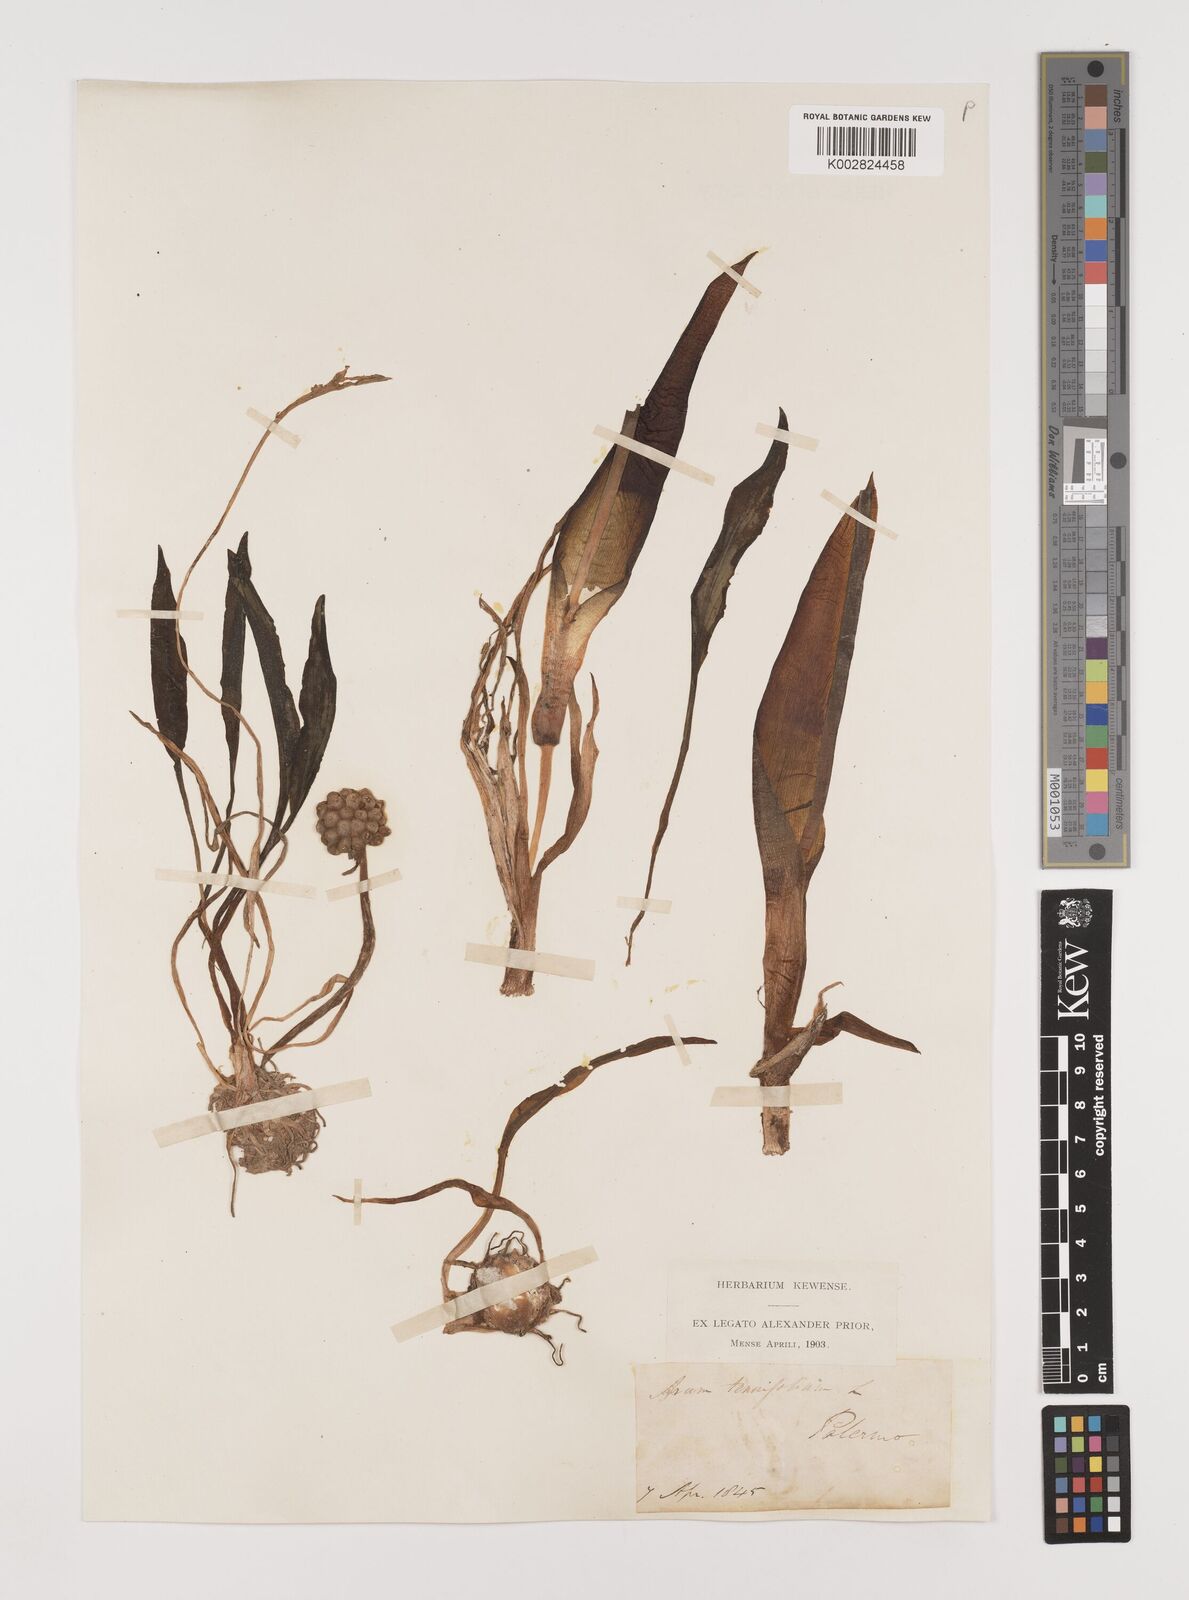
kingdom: Plantae
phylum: Tracheophyta
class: Liliopsida
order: Alismatales
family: Araceae
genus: Biarum
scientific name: Biarum tenuifolium
